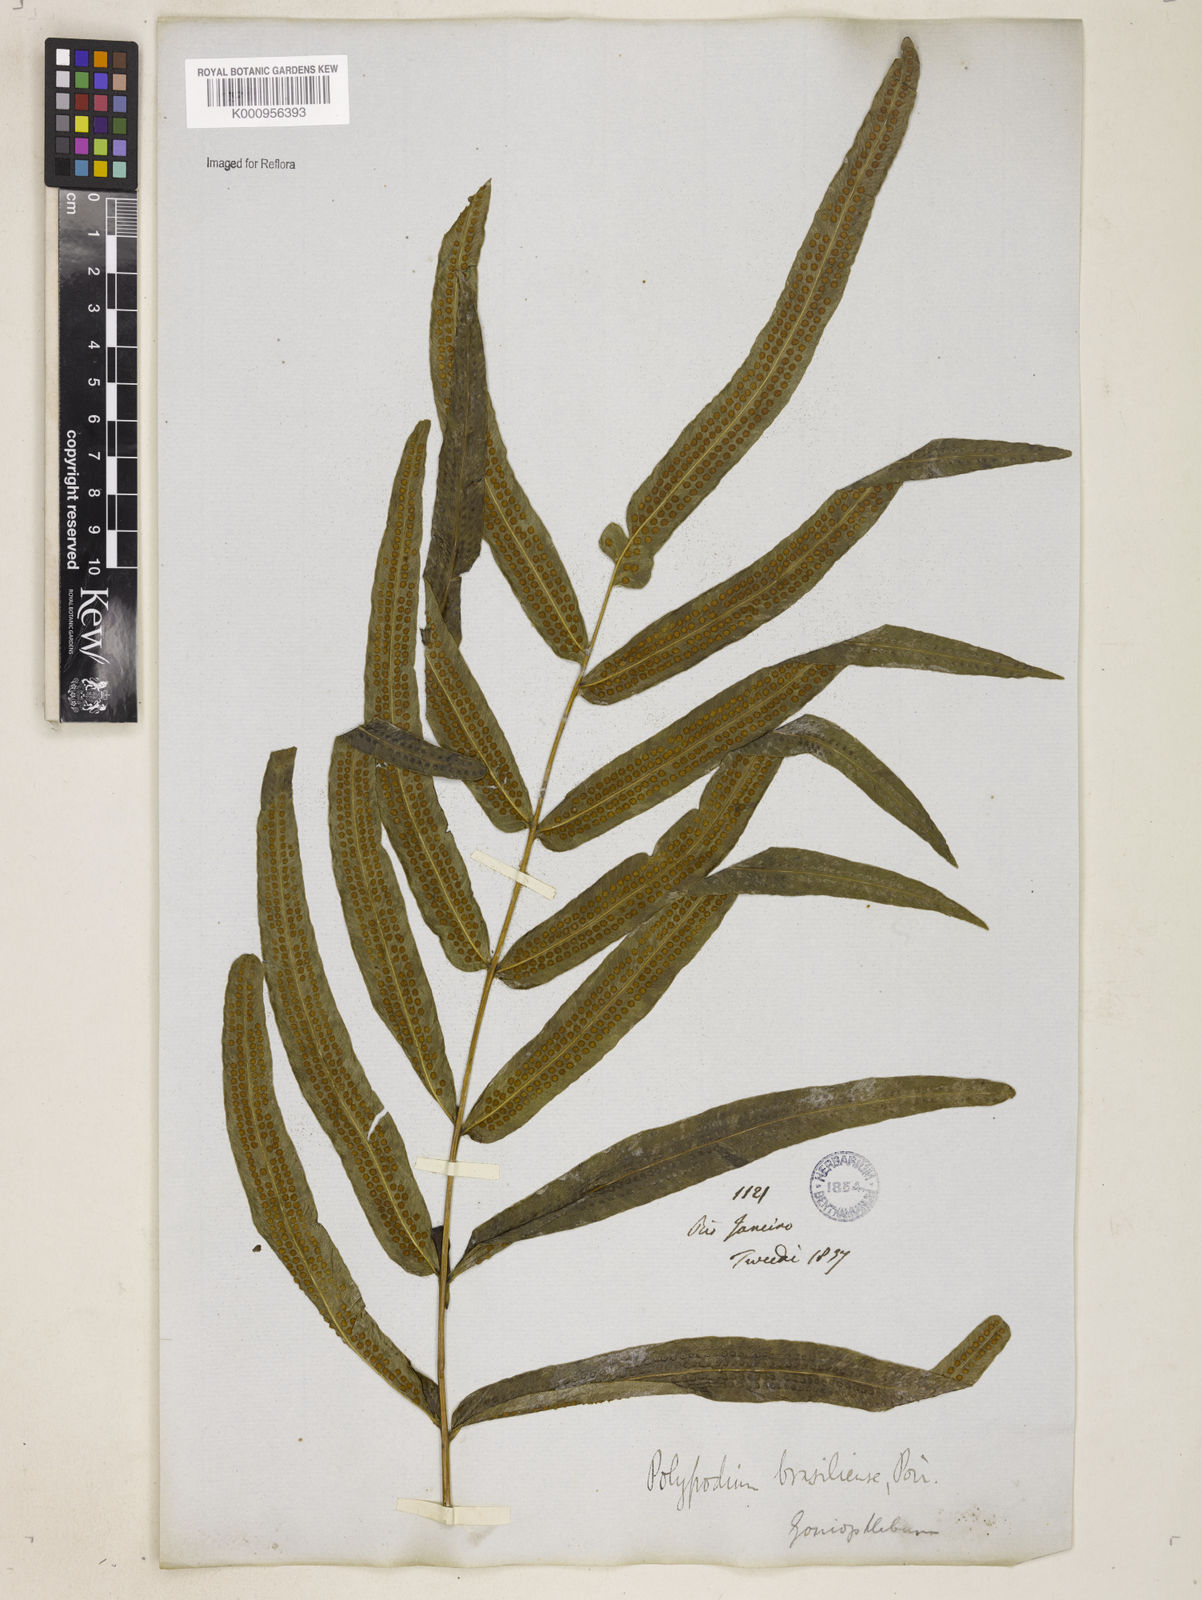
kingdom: Plantae
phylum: Tracheophyta
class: Polypodiopsida
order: Polypodiales
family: Polypodiaceae
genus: Serpocaulon
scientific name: Serpocaulon triseriale
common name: Angle-vein fern
